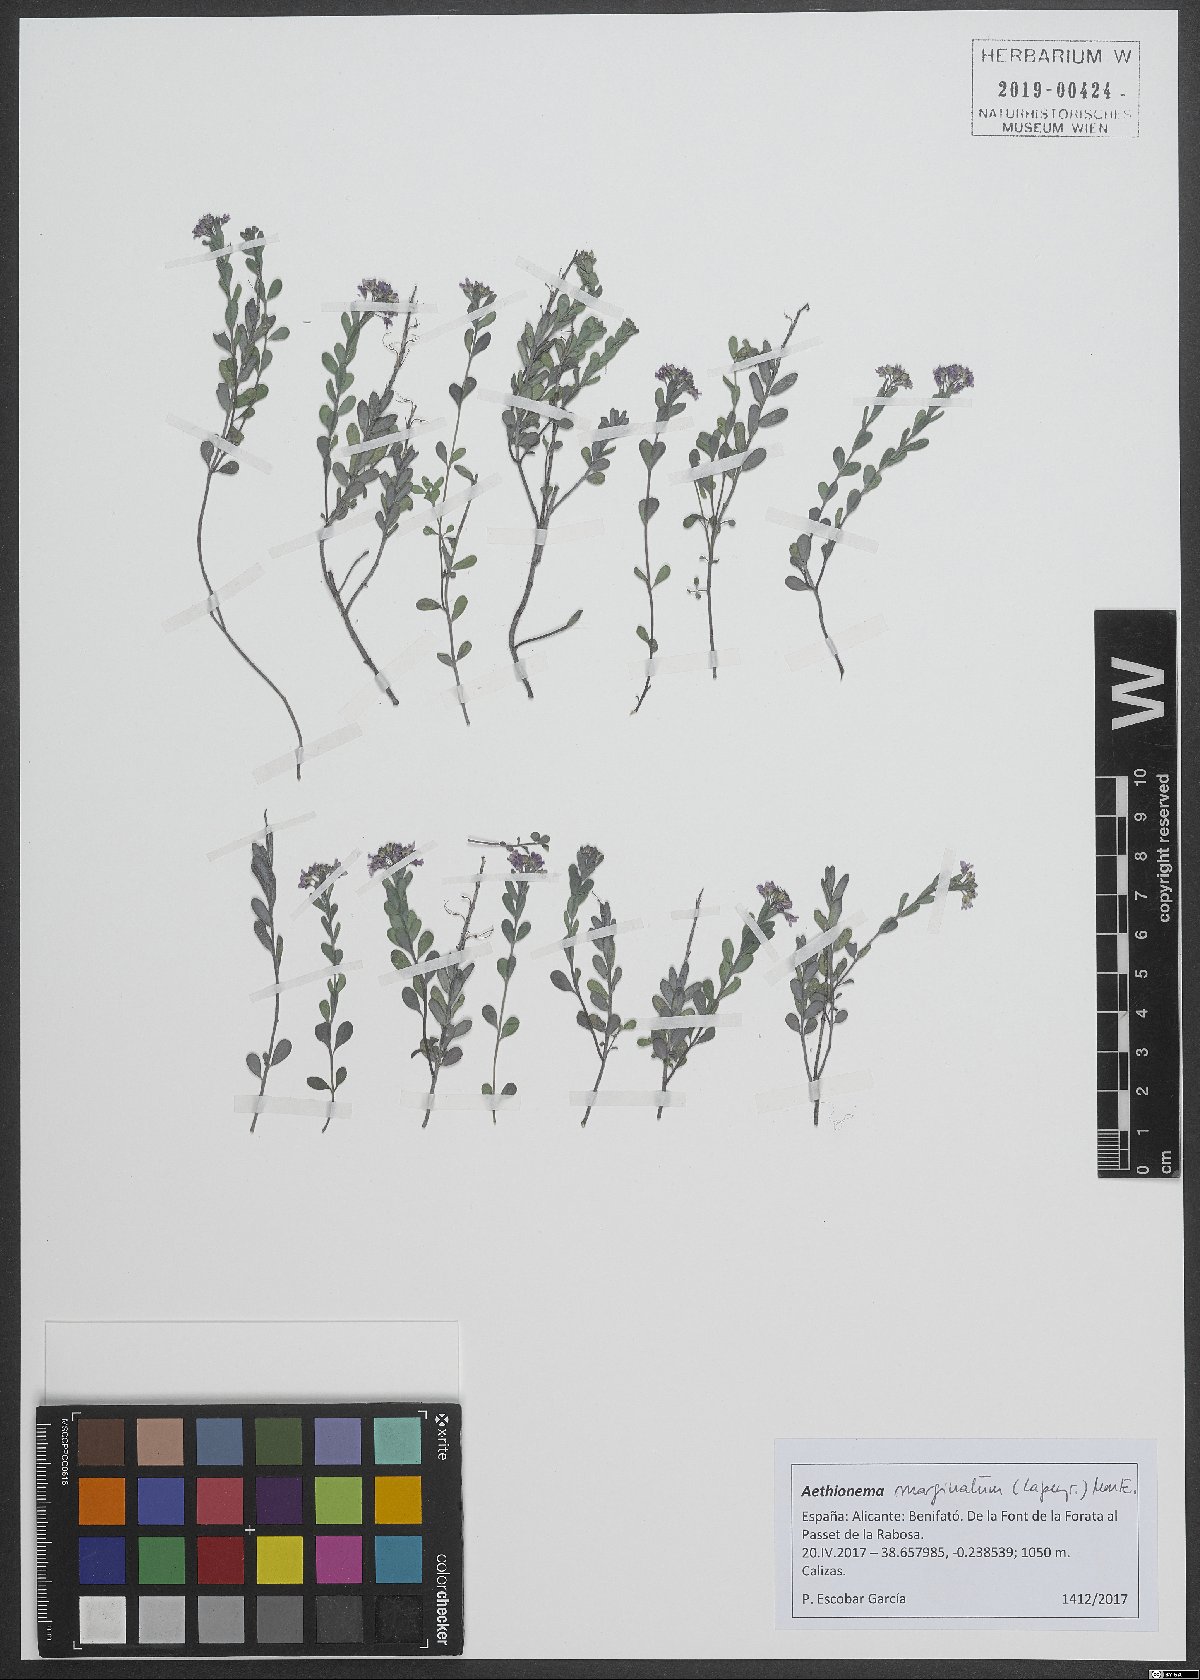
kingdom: Plantae
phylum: Tracheophyta
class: Magnoliopsida
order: Brassicales
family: Brassicaceae
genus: Aethionema
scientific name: Aethionema saxatile
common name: Burnt candytuft
